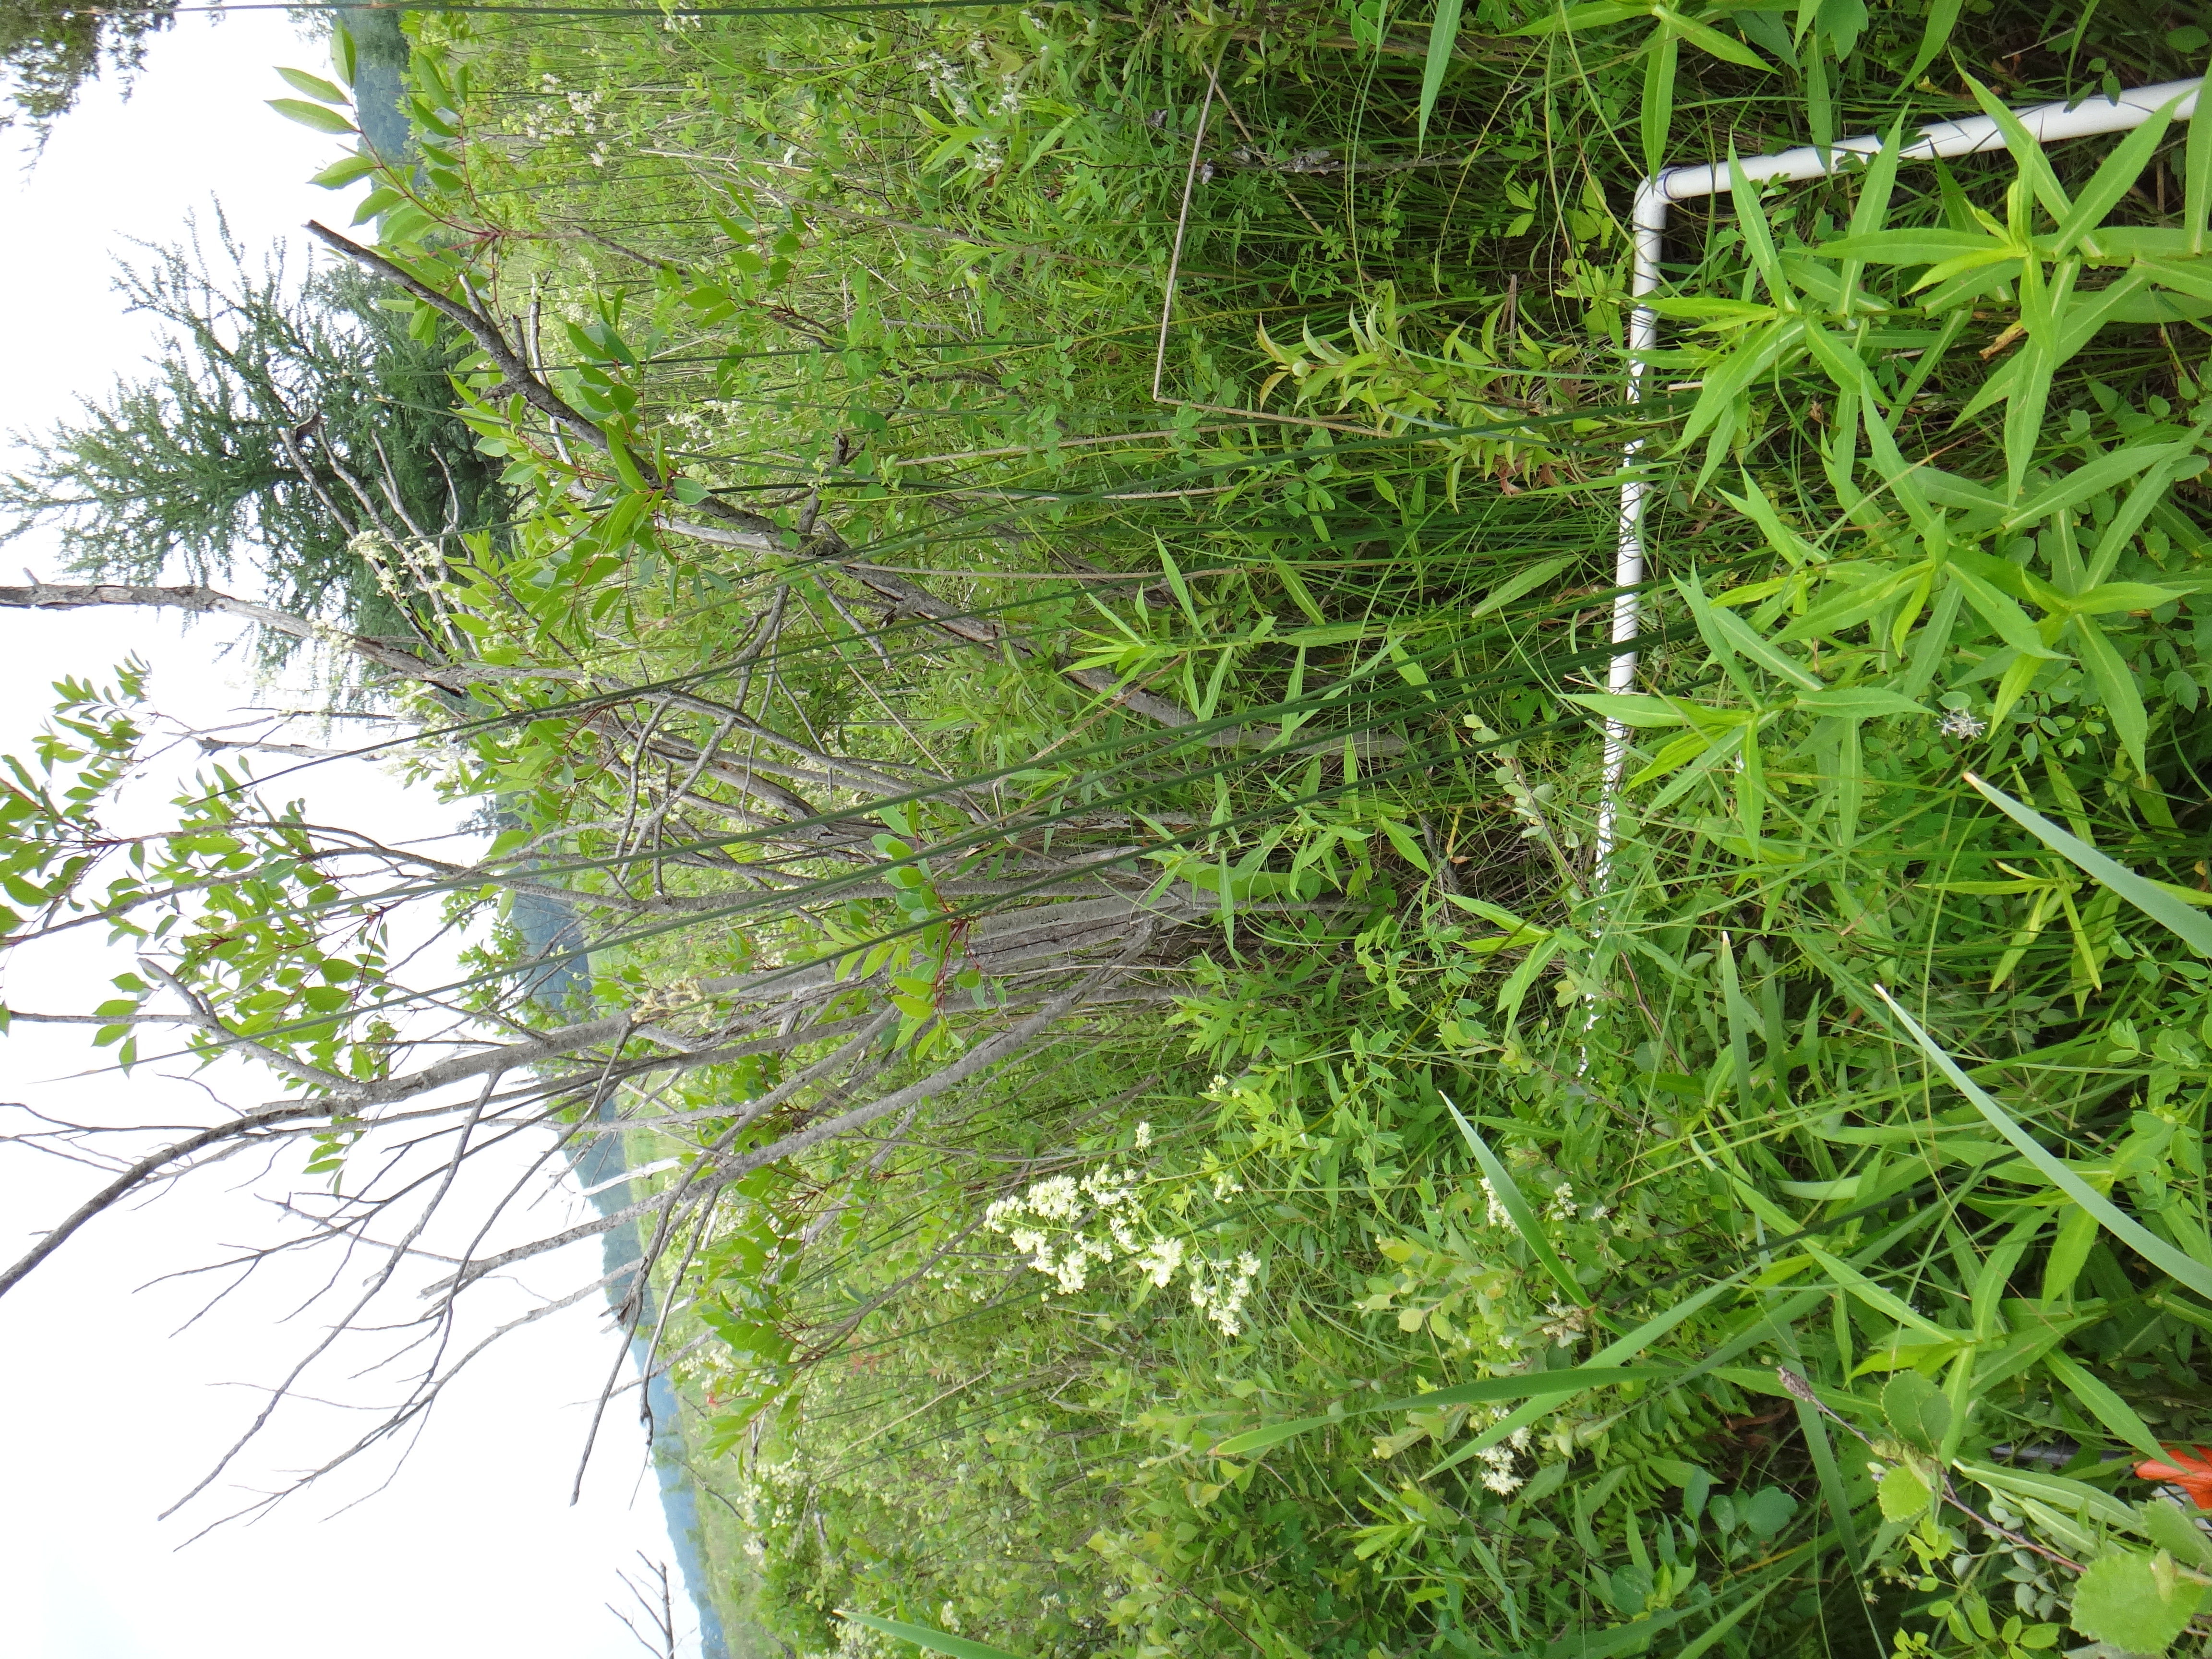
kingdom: Plantae
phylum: Tracheophyta
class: Liliopsida
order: Poales
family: Poaceae
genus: Glyceria
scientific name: Glyceria striata
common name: Fowl manna grass
